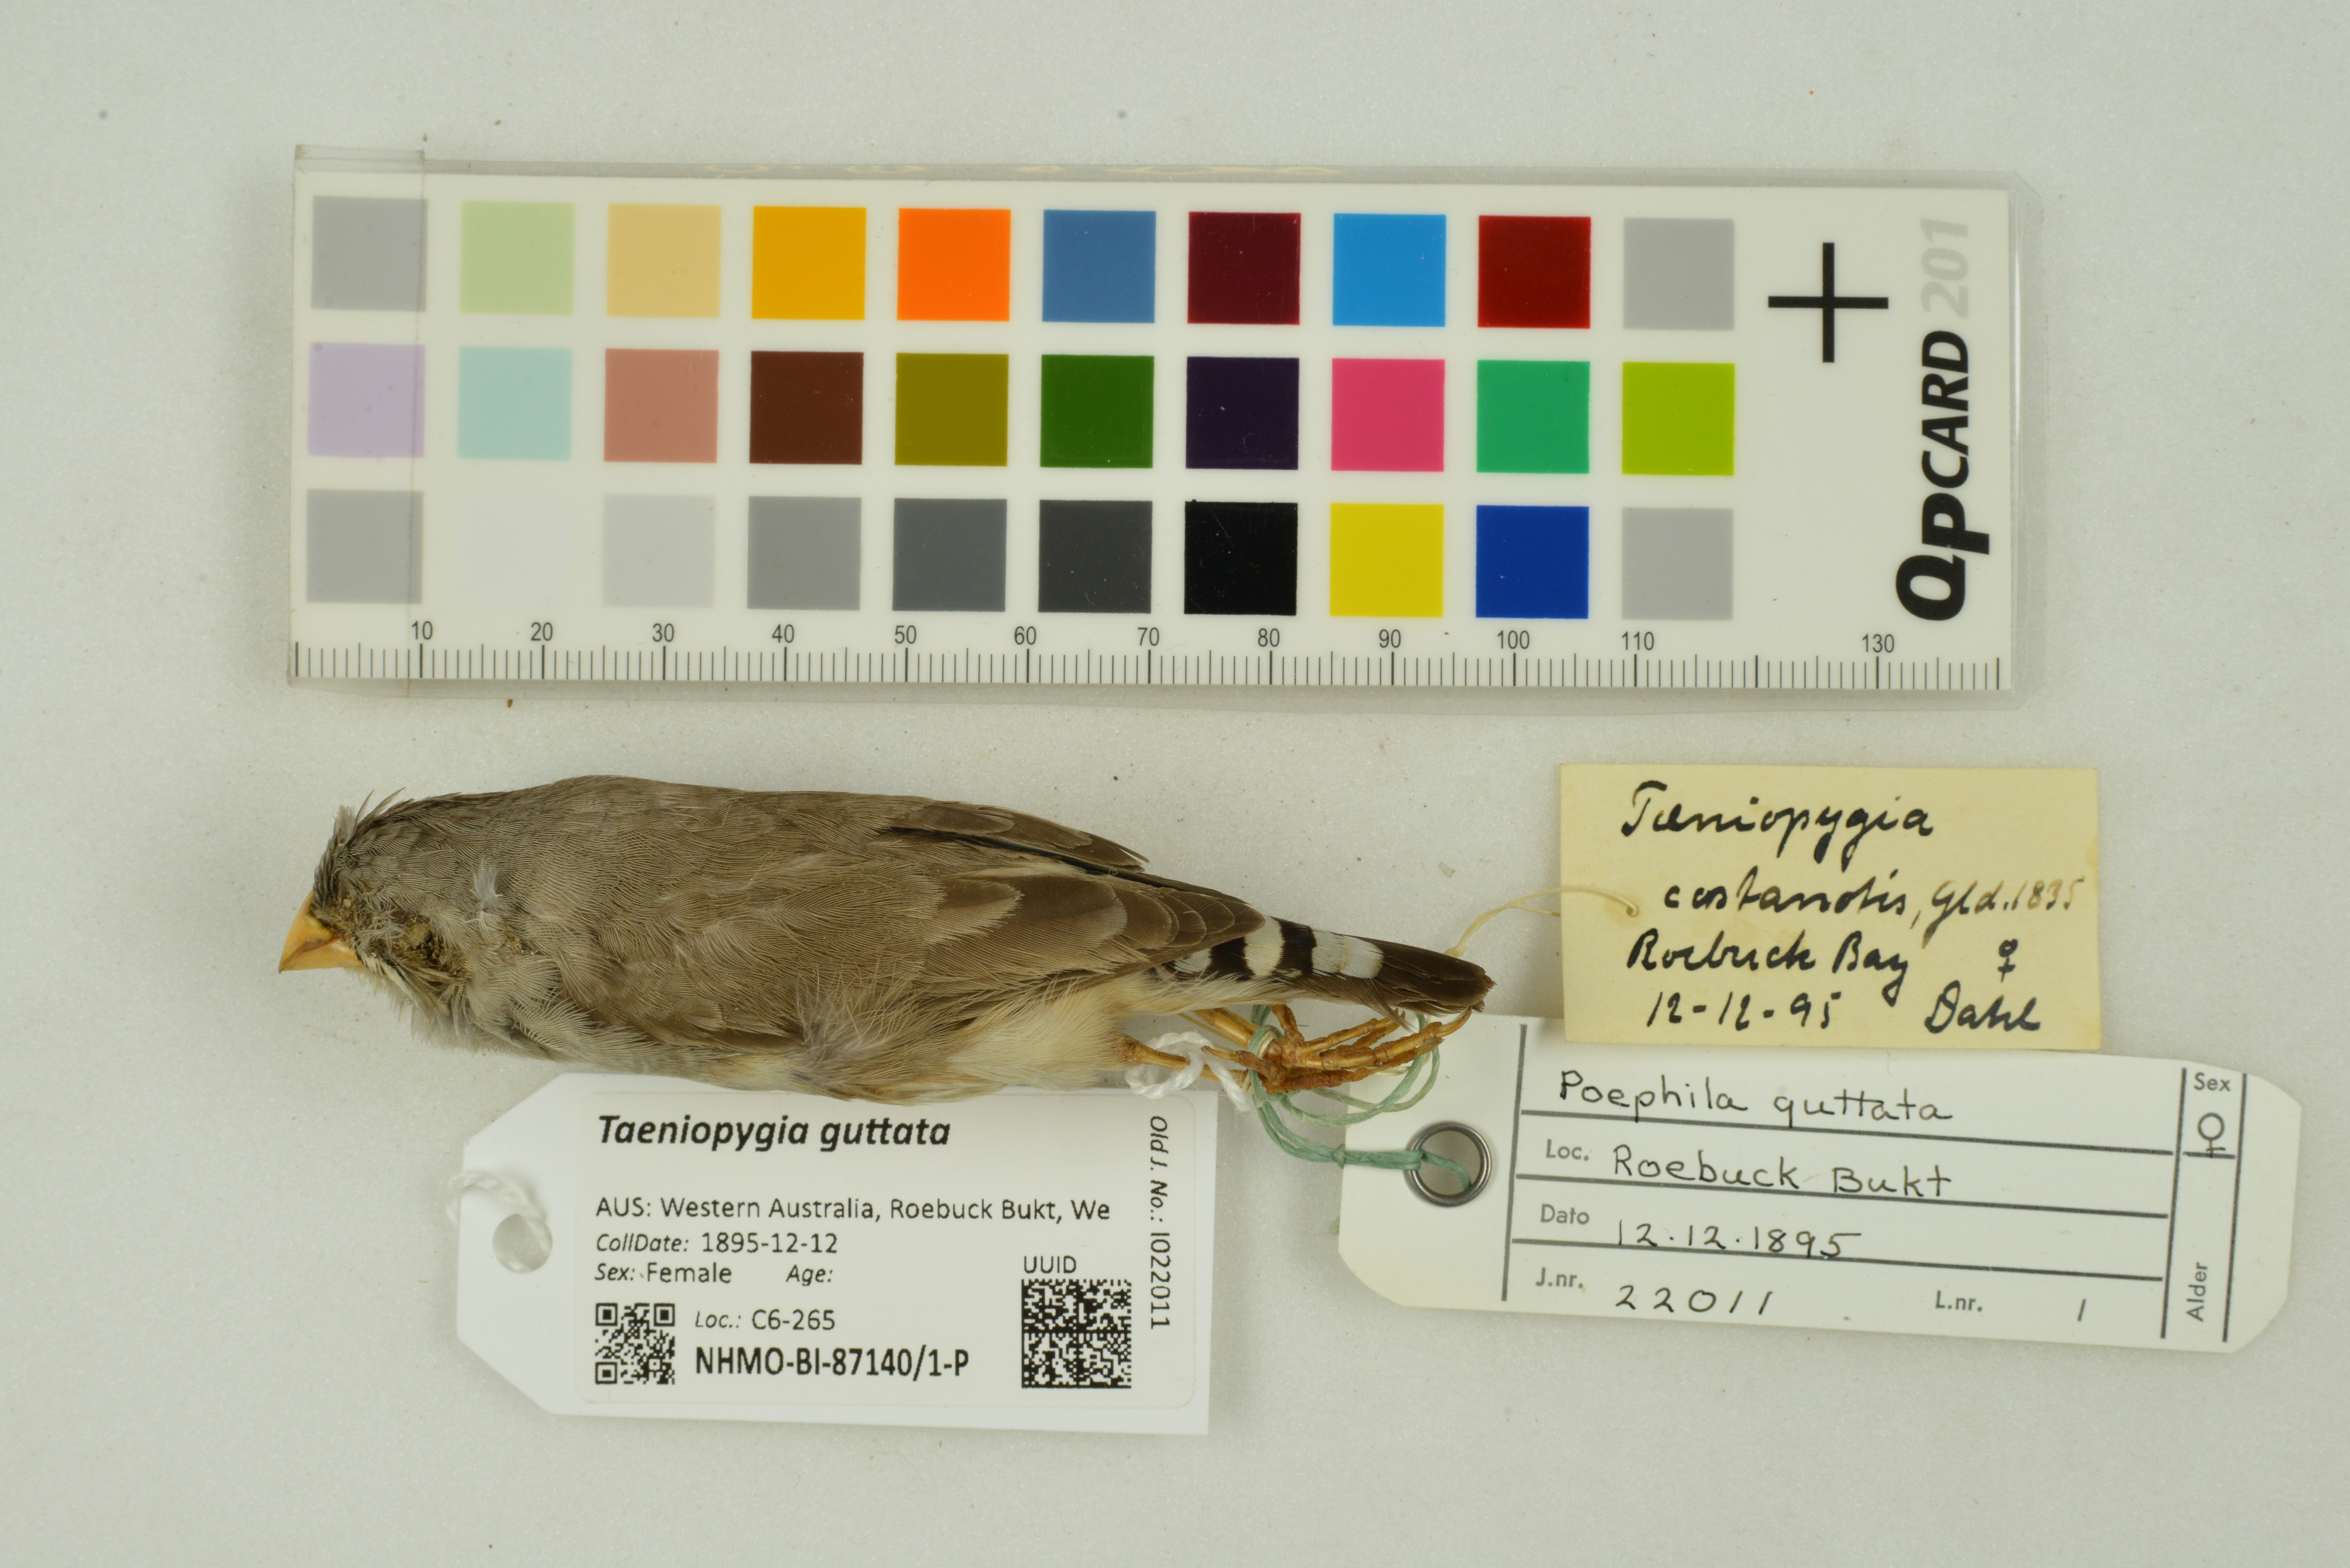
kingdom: Animalia
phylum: Chordata
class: Aves
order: Passeriformes
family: Estrildidae
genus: Taeniopygia
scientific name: Taeniopygia guttata
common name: Zebra finch
